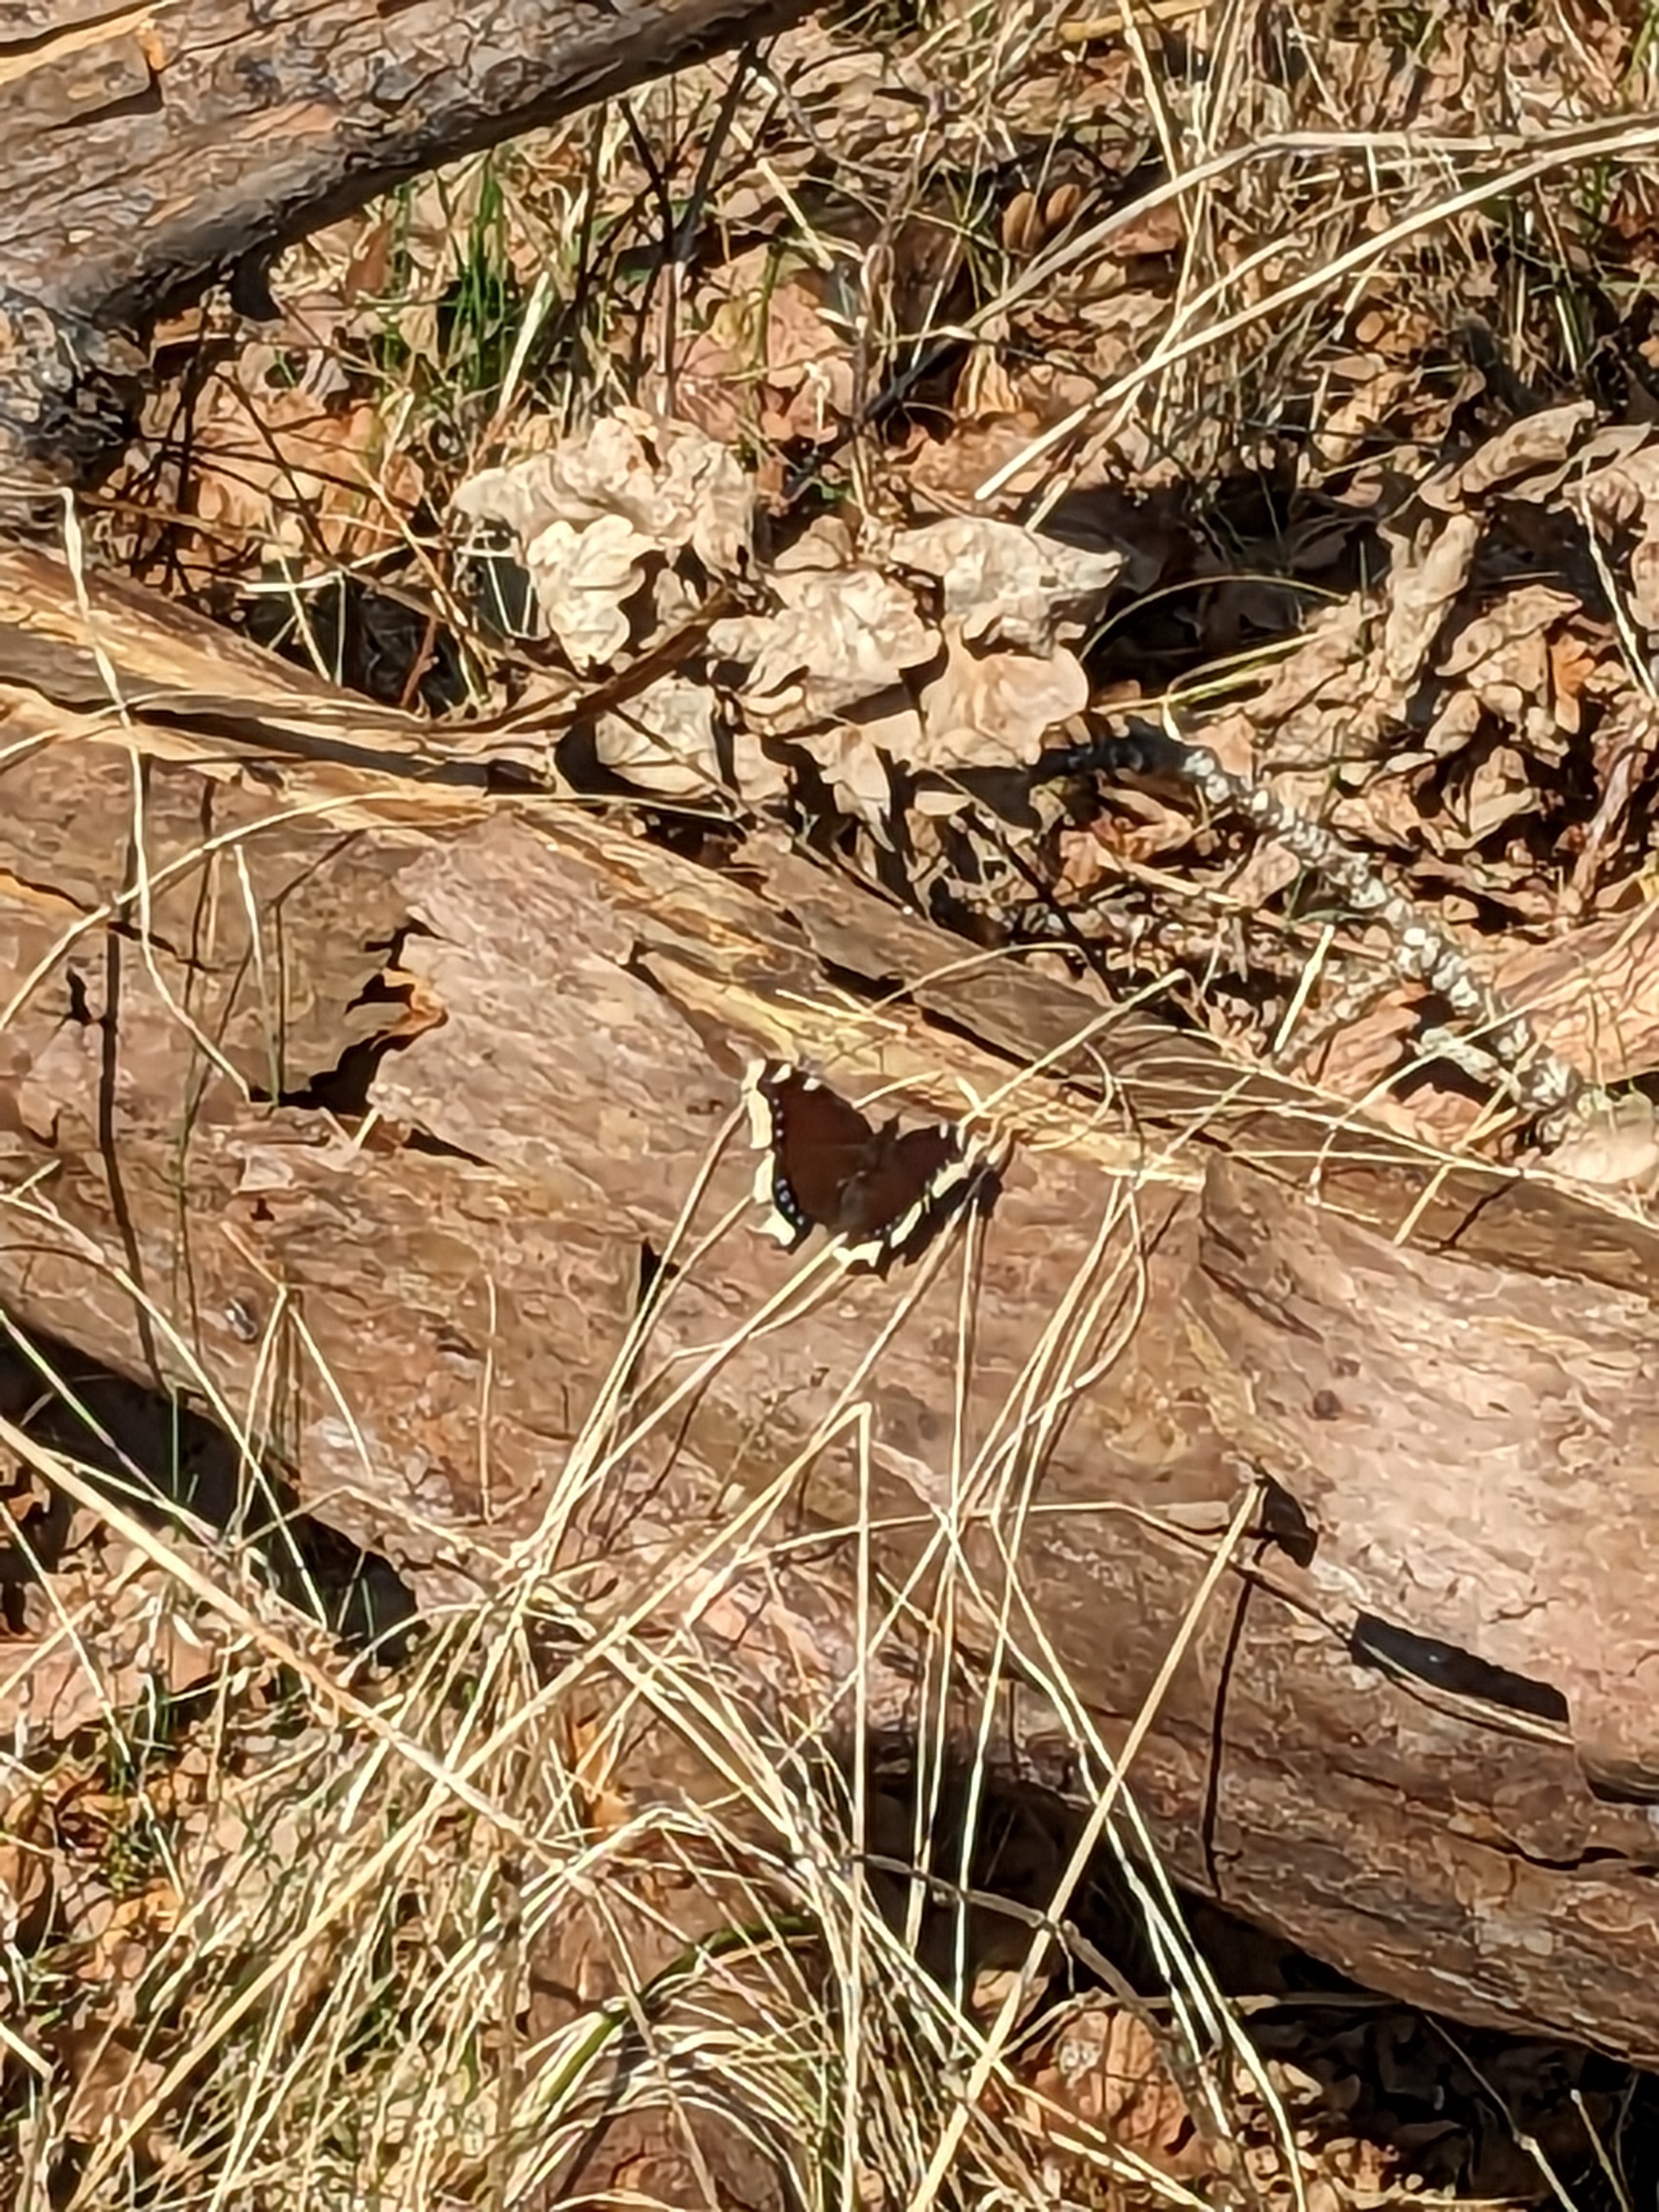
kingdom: Animalia
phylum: Arthropoda
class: Insecta
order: Lepidoptera
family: Nymphalidae
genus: Nymphalis
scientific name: Nymphalis antiopa
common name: Sørgekåbe
